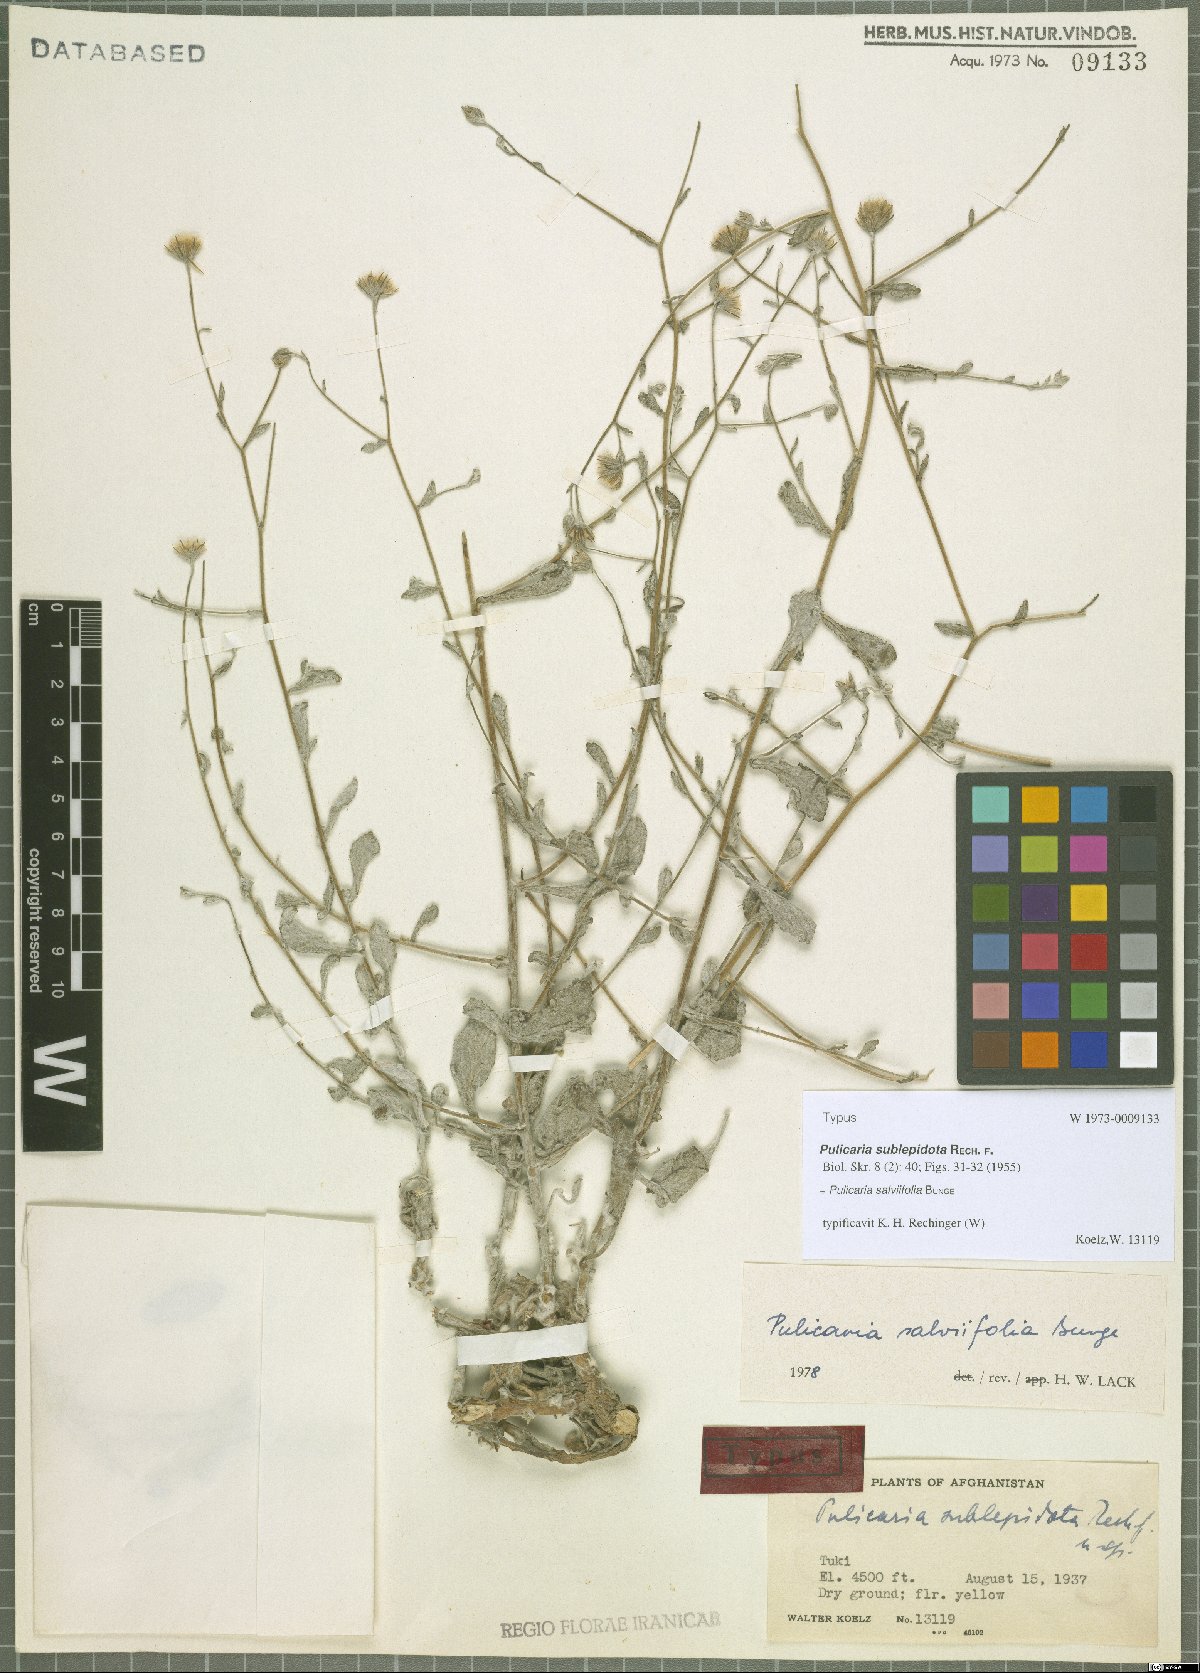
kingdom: Plantae
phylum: Tracheophyta
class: Magnoliopsida
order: Asterales
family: Asteraceae
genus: Pulicaria
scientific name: Pulicaria salviifolia
